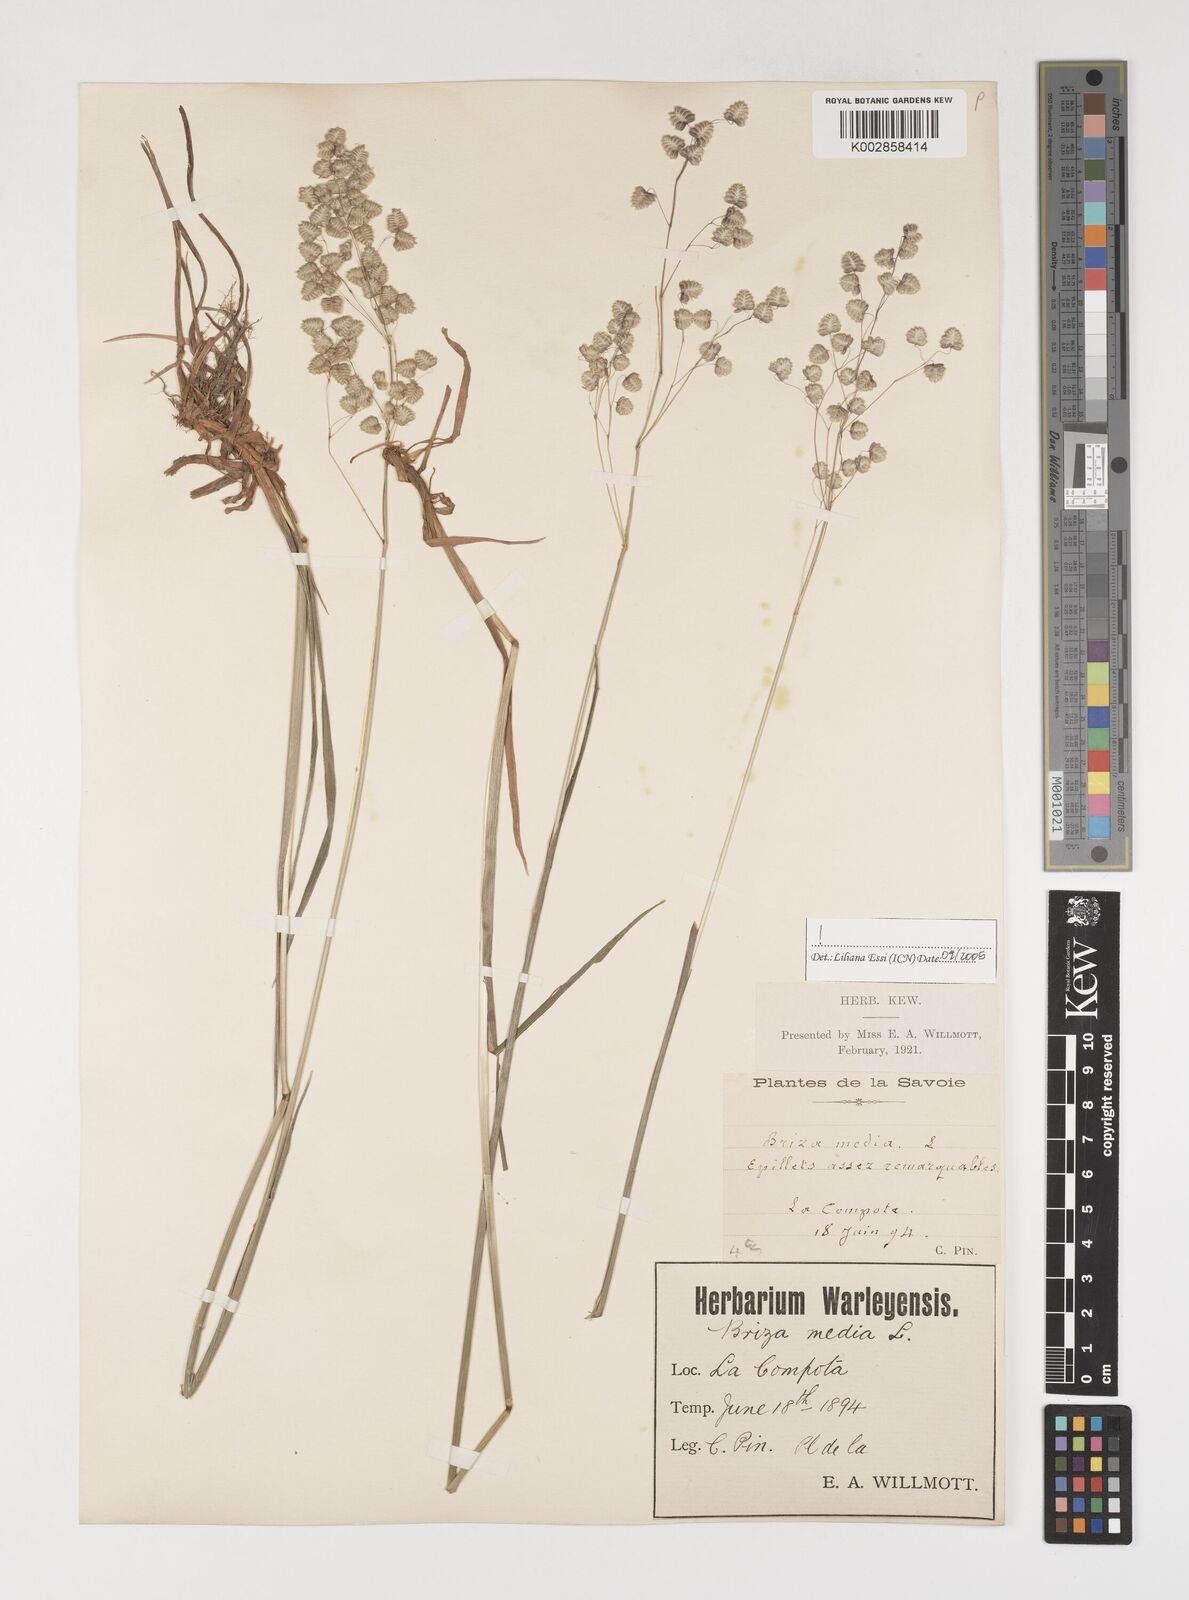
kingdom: Plantae
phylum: Tracheophyta
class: Liliopsida
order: Poales
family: Poaceae
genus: Briza
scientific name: Briza media
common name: Quaking grass
